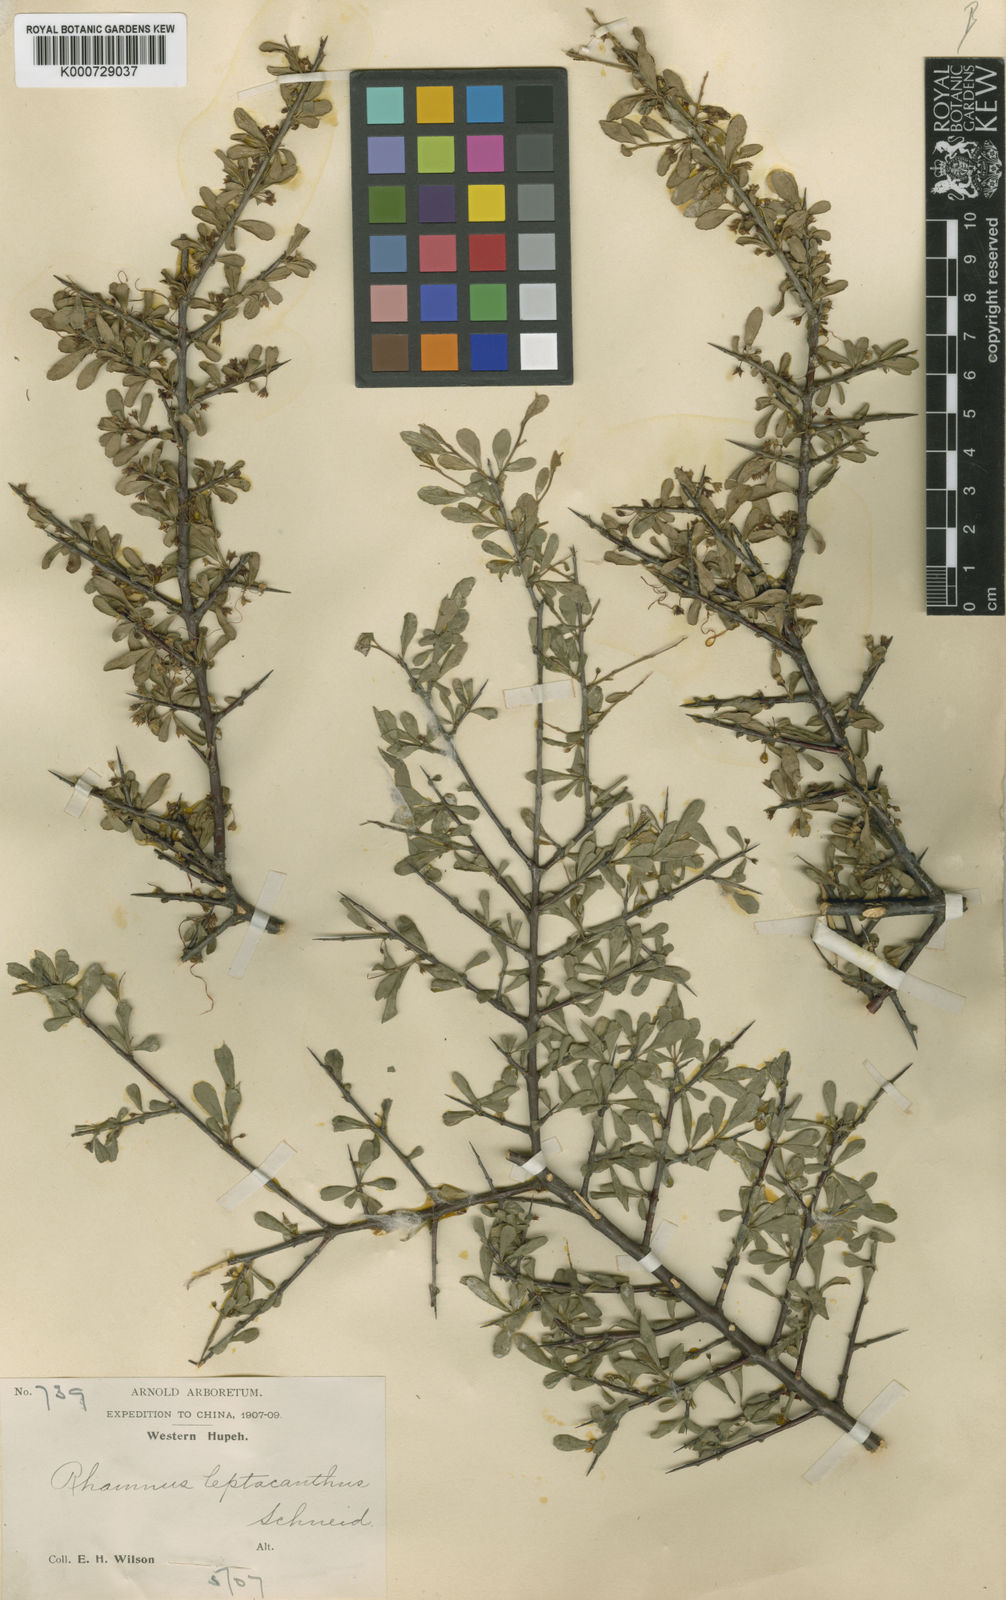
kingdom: Plantae
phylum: Tracheophyta
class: Magnoliopsida
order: Rosales
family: Rhamnaceae
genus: Rhamnus
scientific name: Rhamnus
